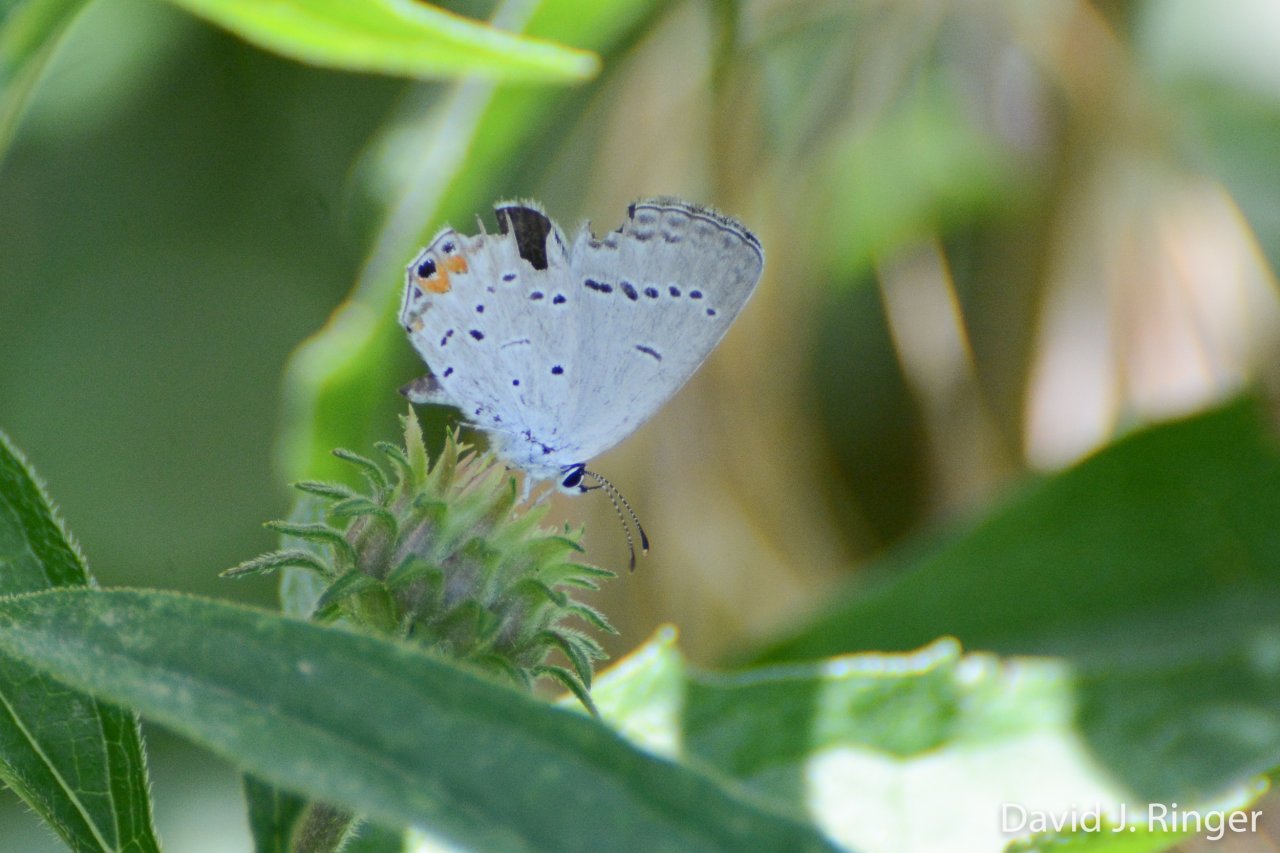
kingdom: Animalia
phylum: Arthropoda
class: Insecta
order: Lepidoptera
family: Lycaenidae
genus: Elkalyce
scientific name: Elkalyce comyntas
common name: Eastern Tailed-Blue
